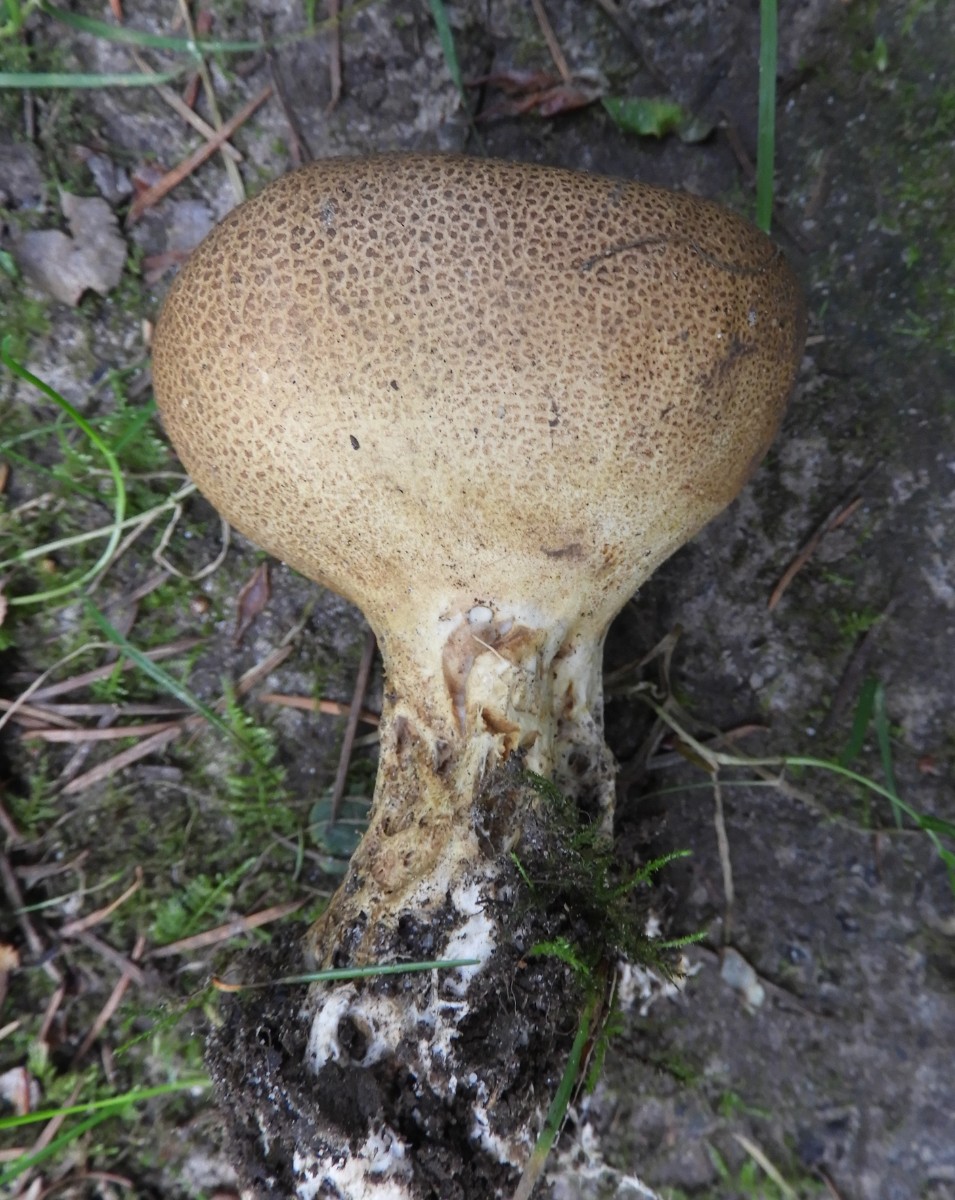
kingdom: Fungi
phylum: Basidiomycota
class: Agaricomycetes
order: Boletales
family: Sclerodermataceae
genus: Scleroderma
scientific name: Scleroderma verrucosum
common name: stilket bruskbold
